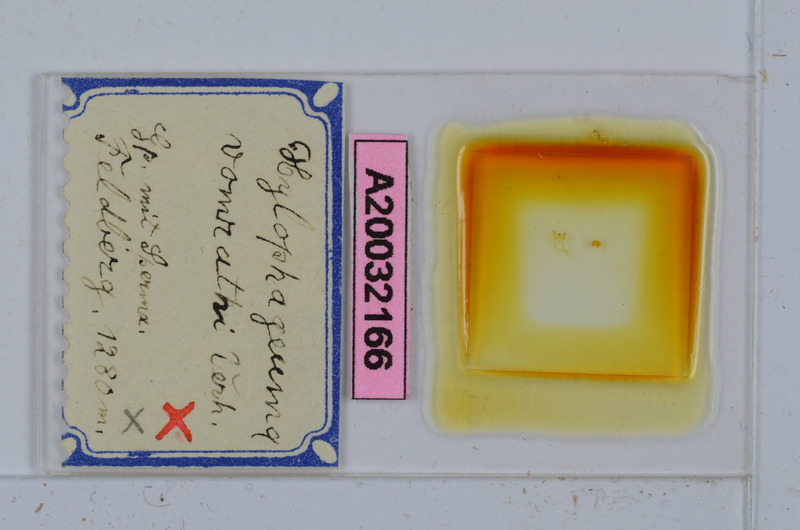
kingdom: Animalia
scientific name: Animalia
